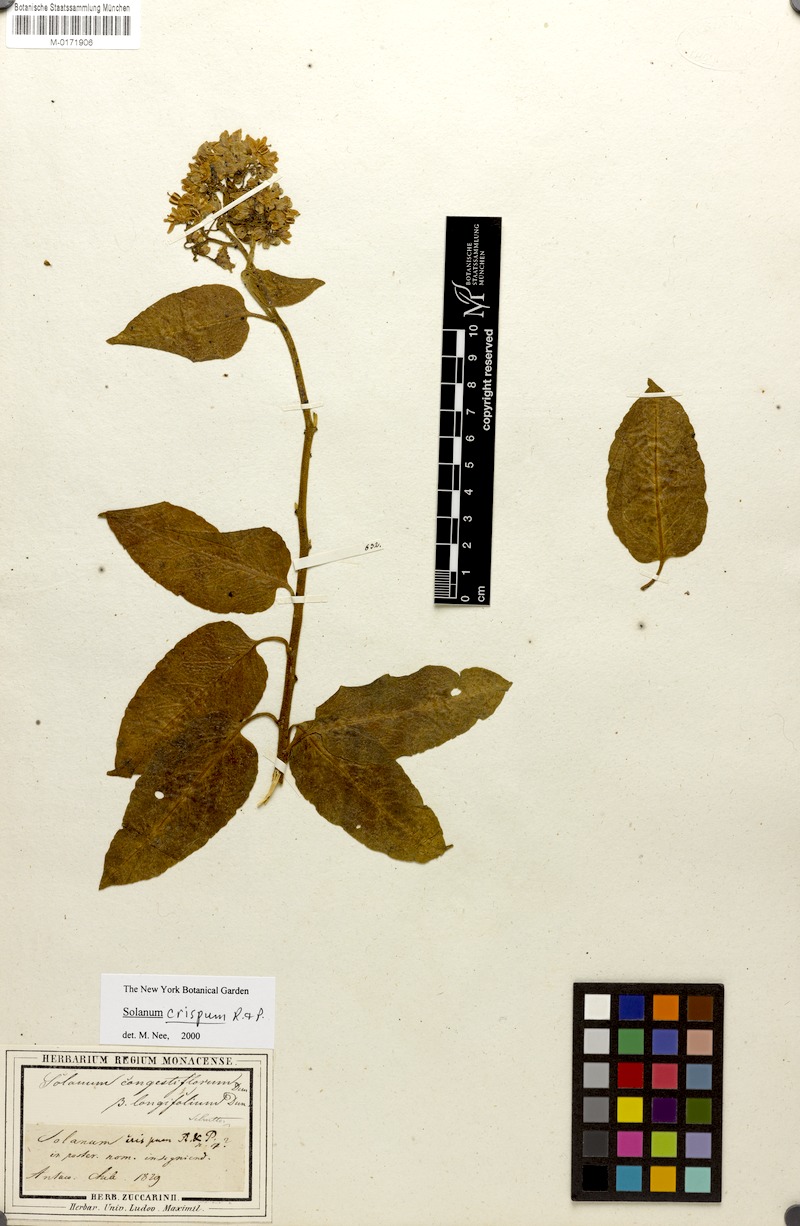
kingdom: Plantae
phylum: Tracheophyta
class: Magnoliopsida
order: Solanales
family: Solanaceae
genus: Solanum
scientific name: Solanum crispum
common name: Chilean nightshade
